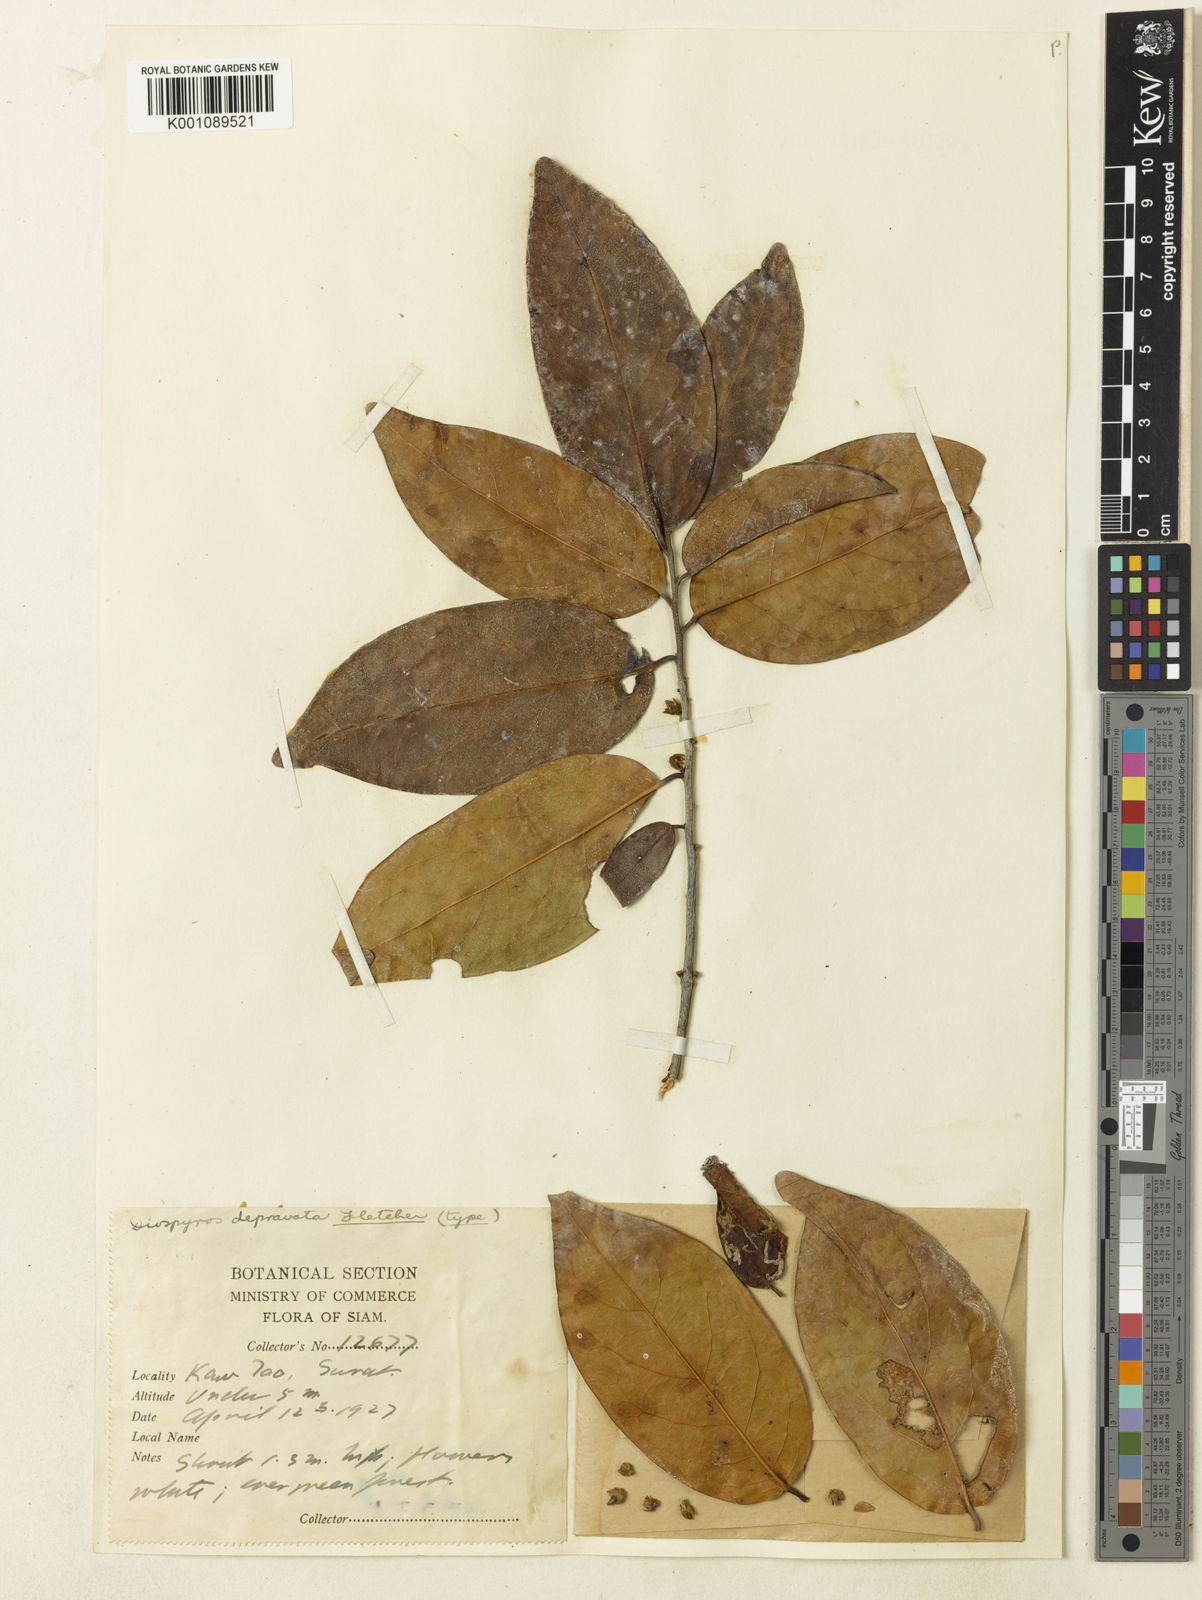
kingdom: Plantae
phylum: Tracheophyta
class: Magnoliopsida
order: Ericales
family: Ebenaceae
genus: Diospyros
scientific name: Diospyros defectrix
